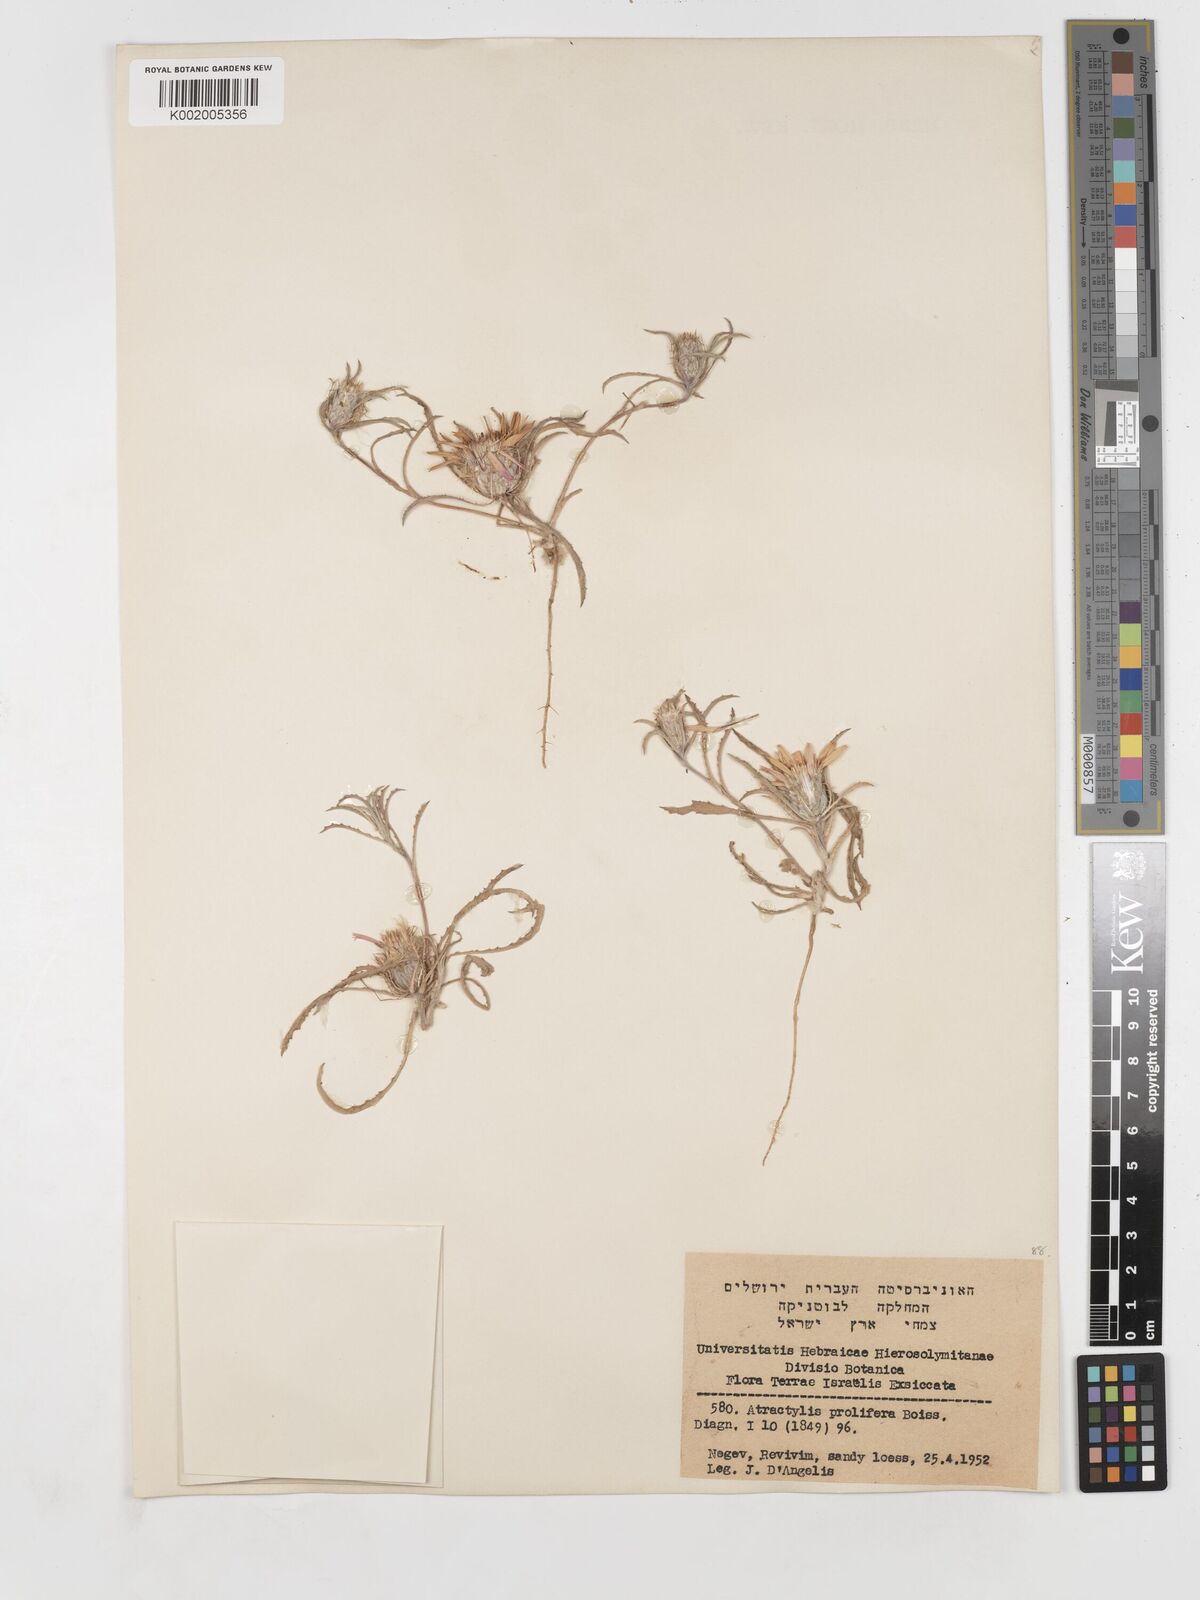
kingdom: Plantae
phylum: Tracheophyta
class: Magnoliopsida
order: Asterales
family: Asteraceae
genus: Atractylis
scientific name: Atractylis prolifera
